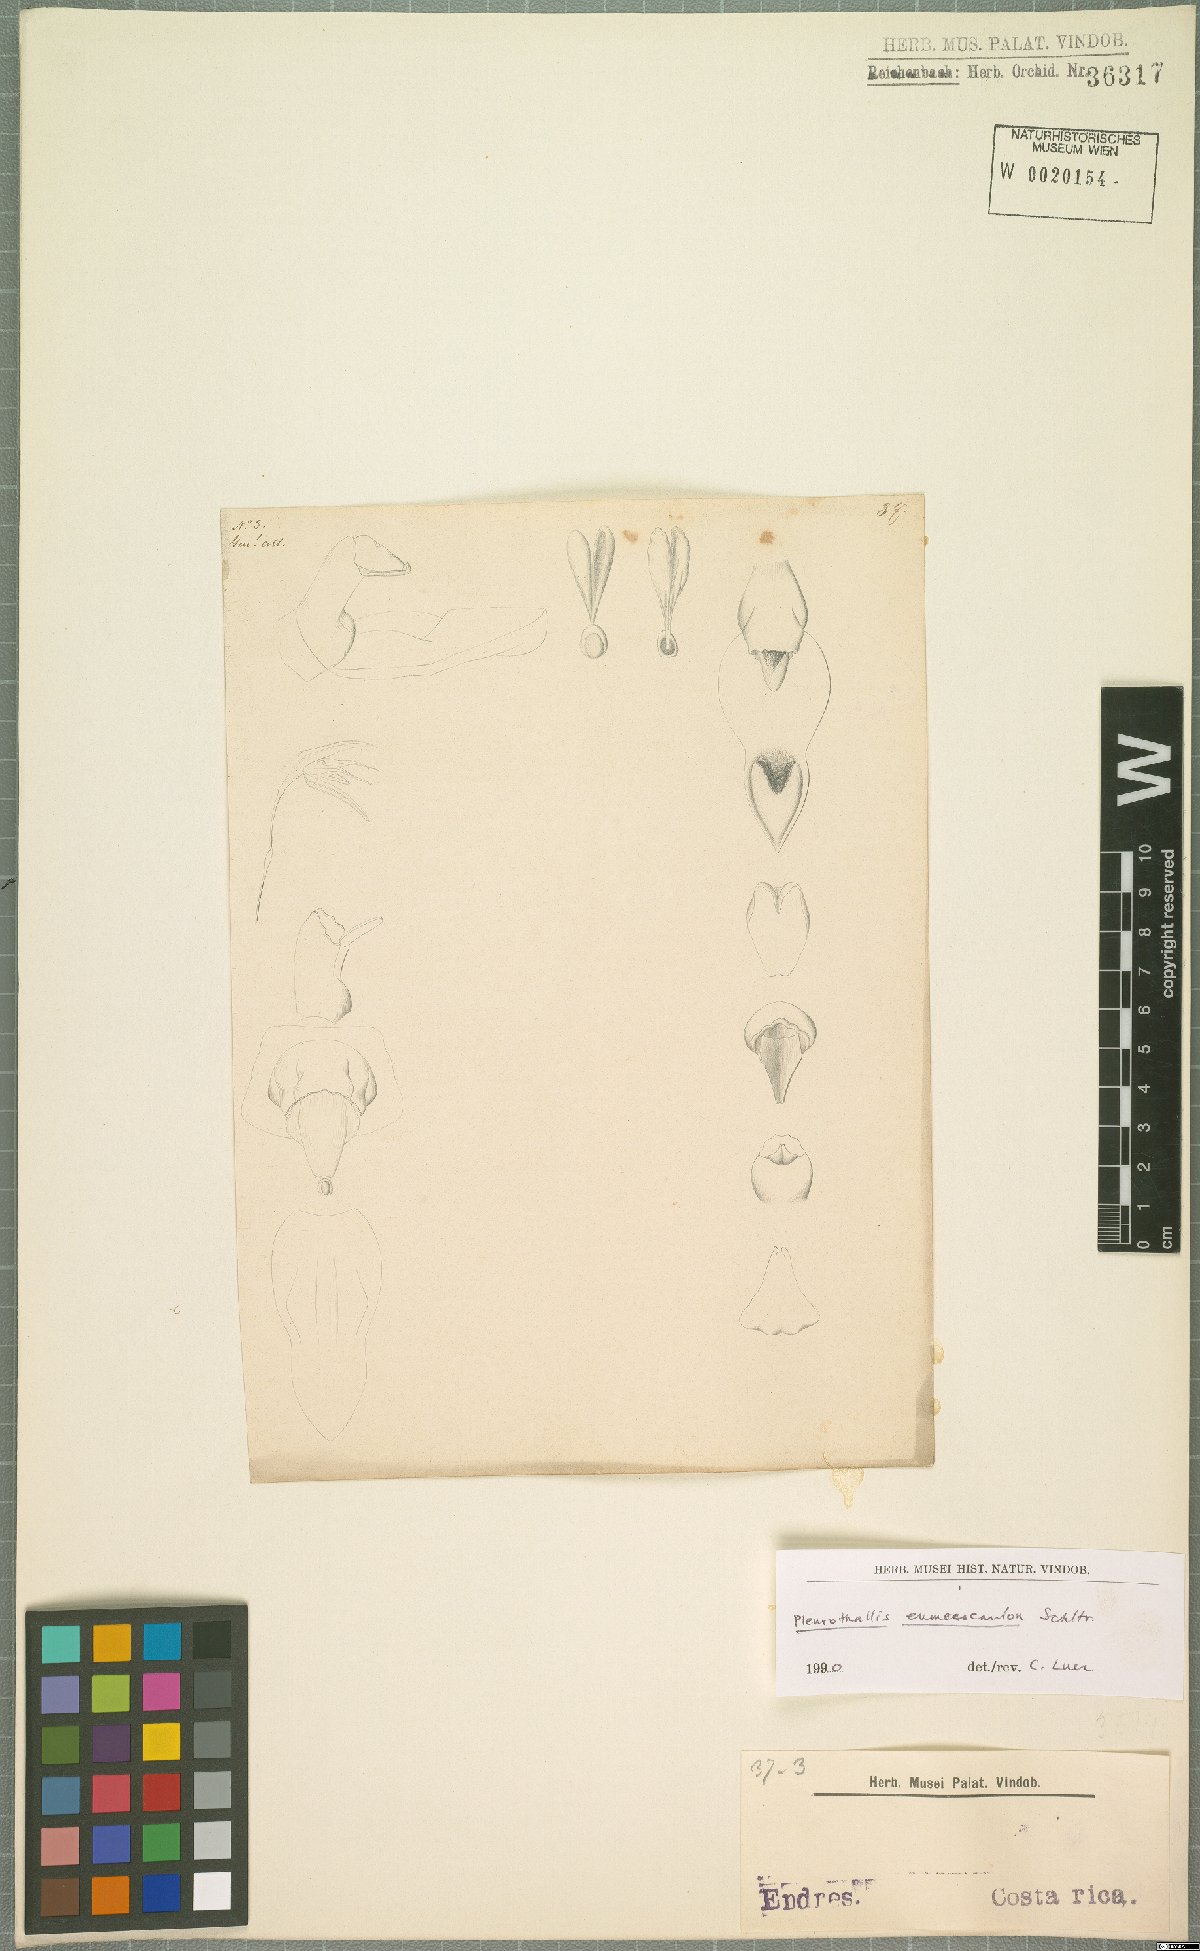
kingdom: Plantae
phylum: Tracheophyta
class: Liliopsida
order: Asparagales
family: Orchidaceae
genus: Pleurothallis
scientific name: Pleurothallis eumecocaulon
